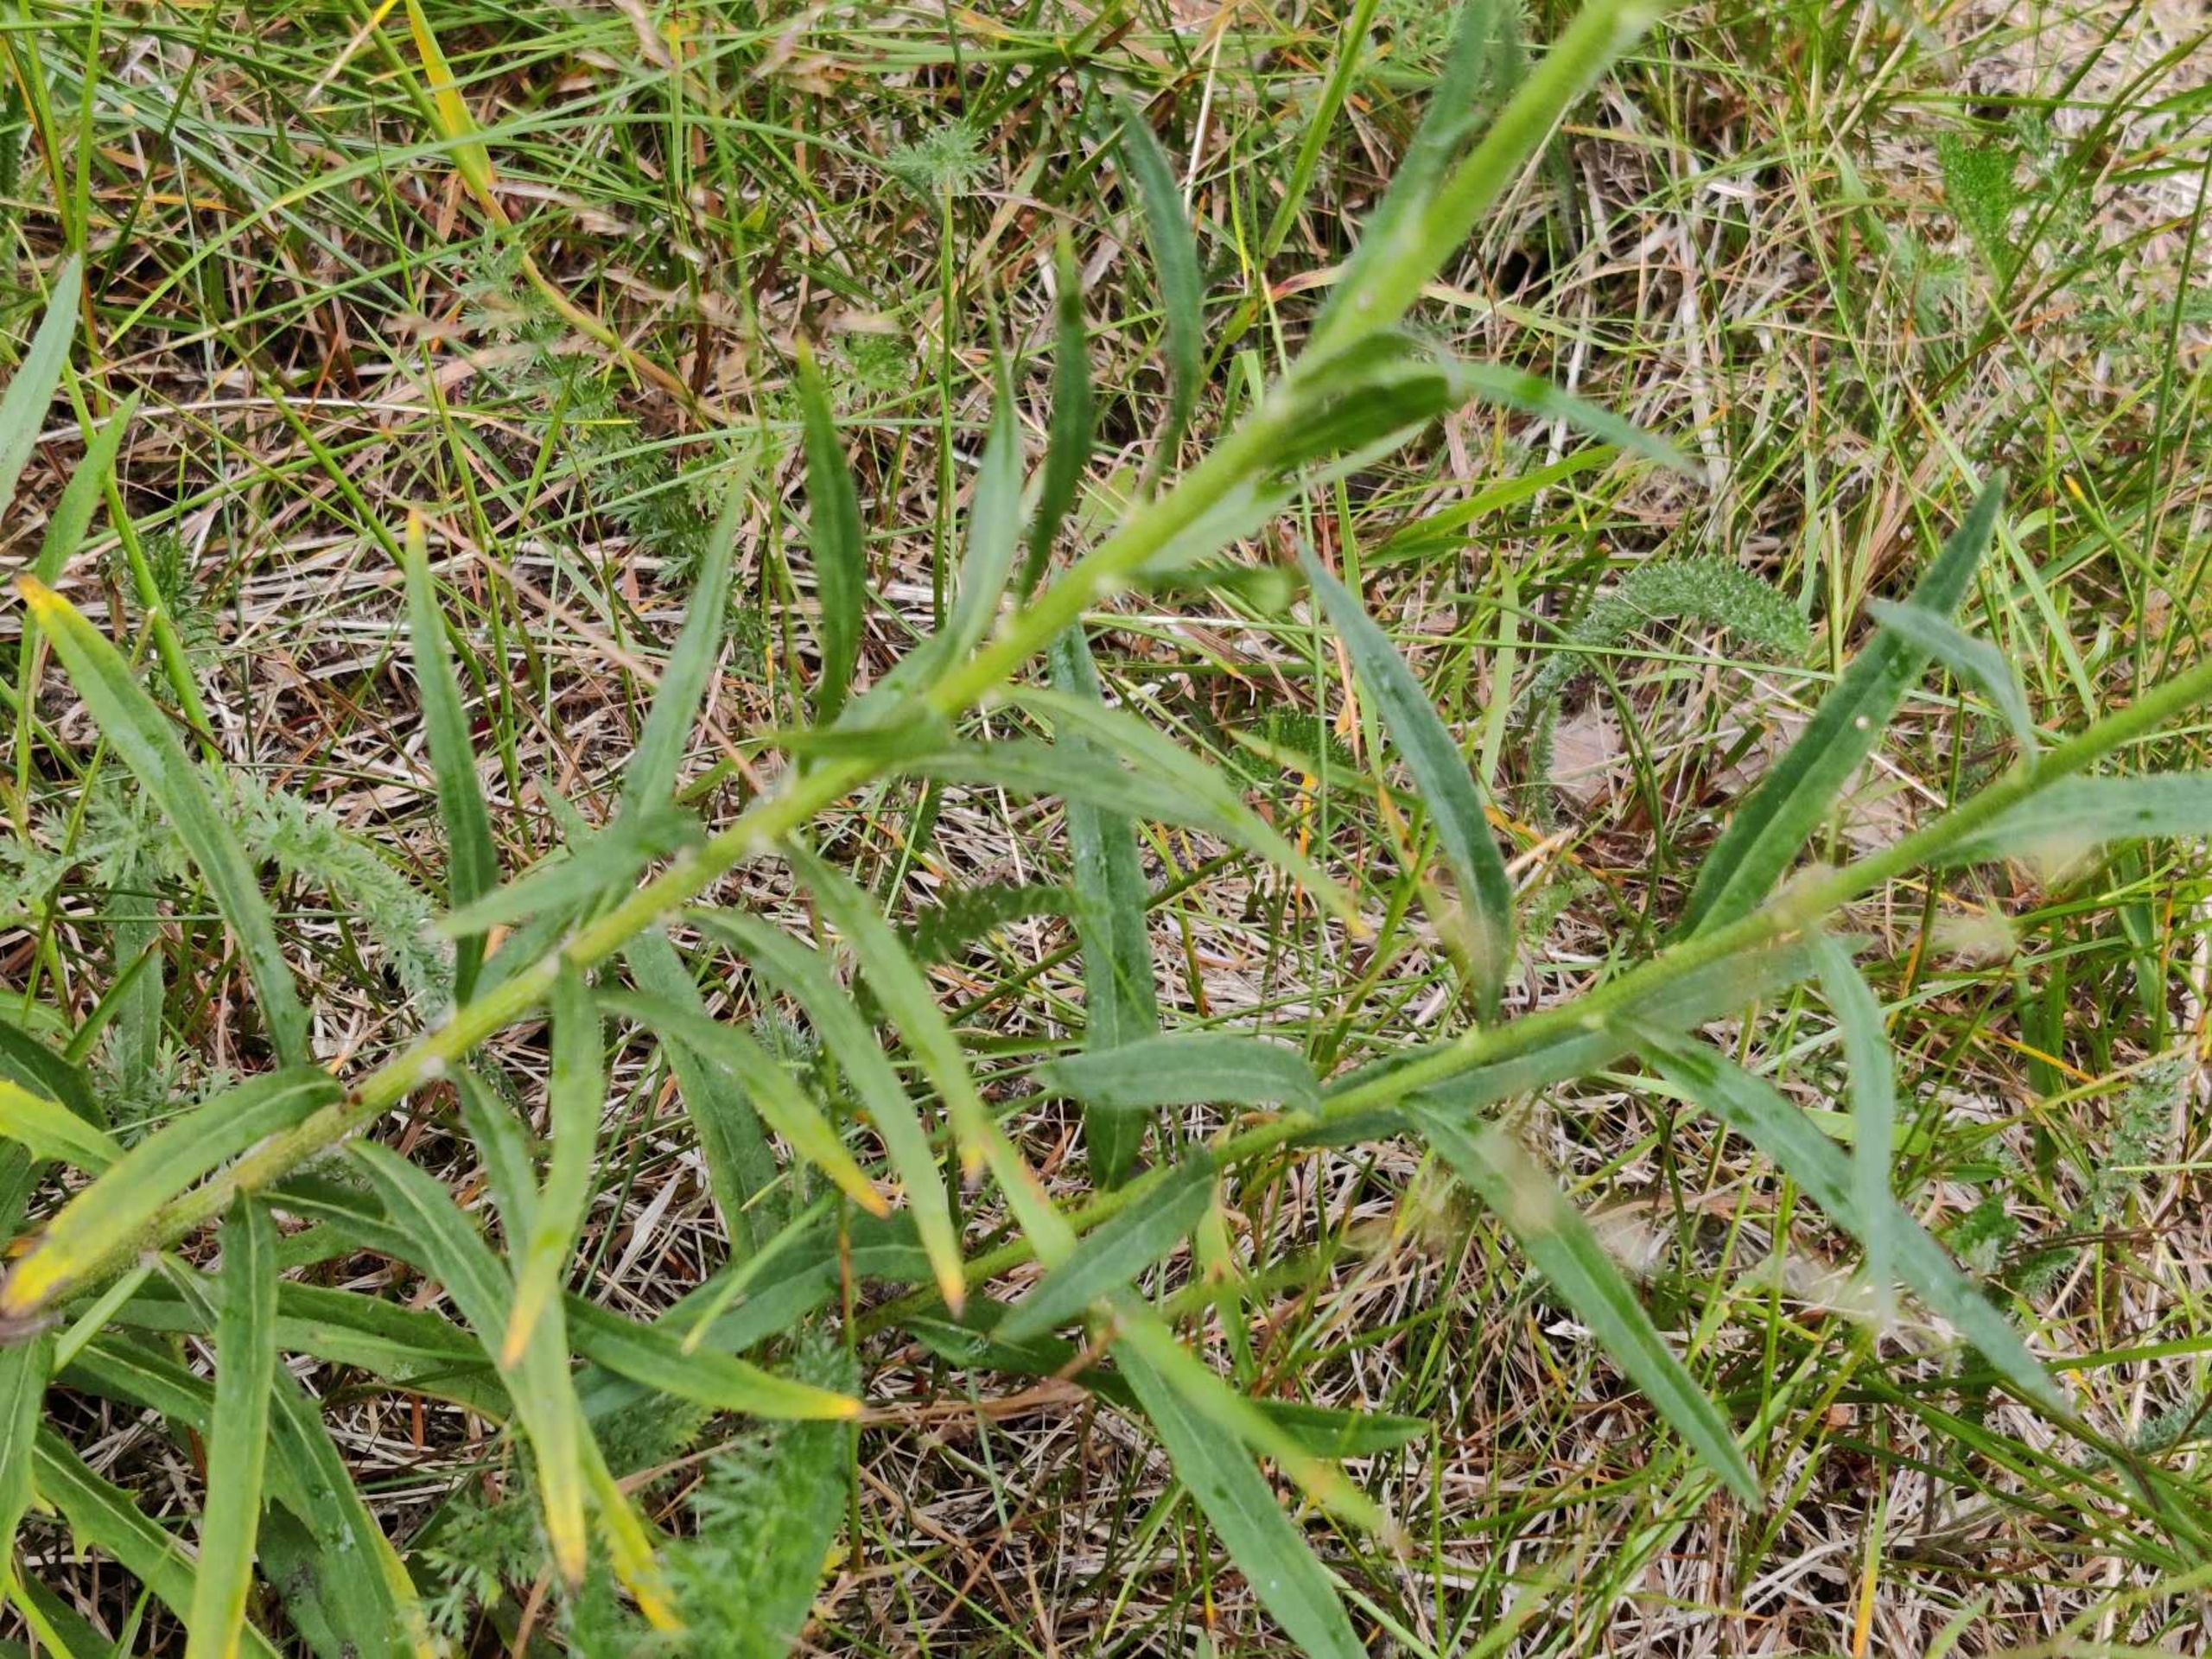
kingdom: Plantae
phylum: Tracheophyta
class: Magnoliopsida
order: Asterales
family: Asteraceae
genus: Hieracium
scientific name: Hieracium umbellatum
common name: Smalbladet høgeurt
